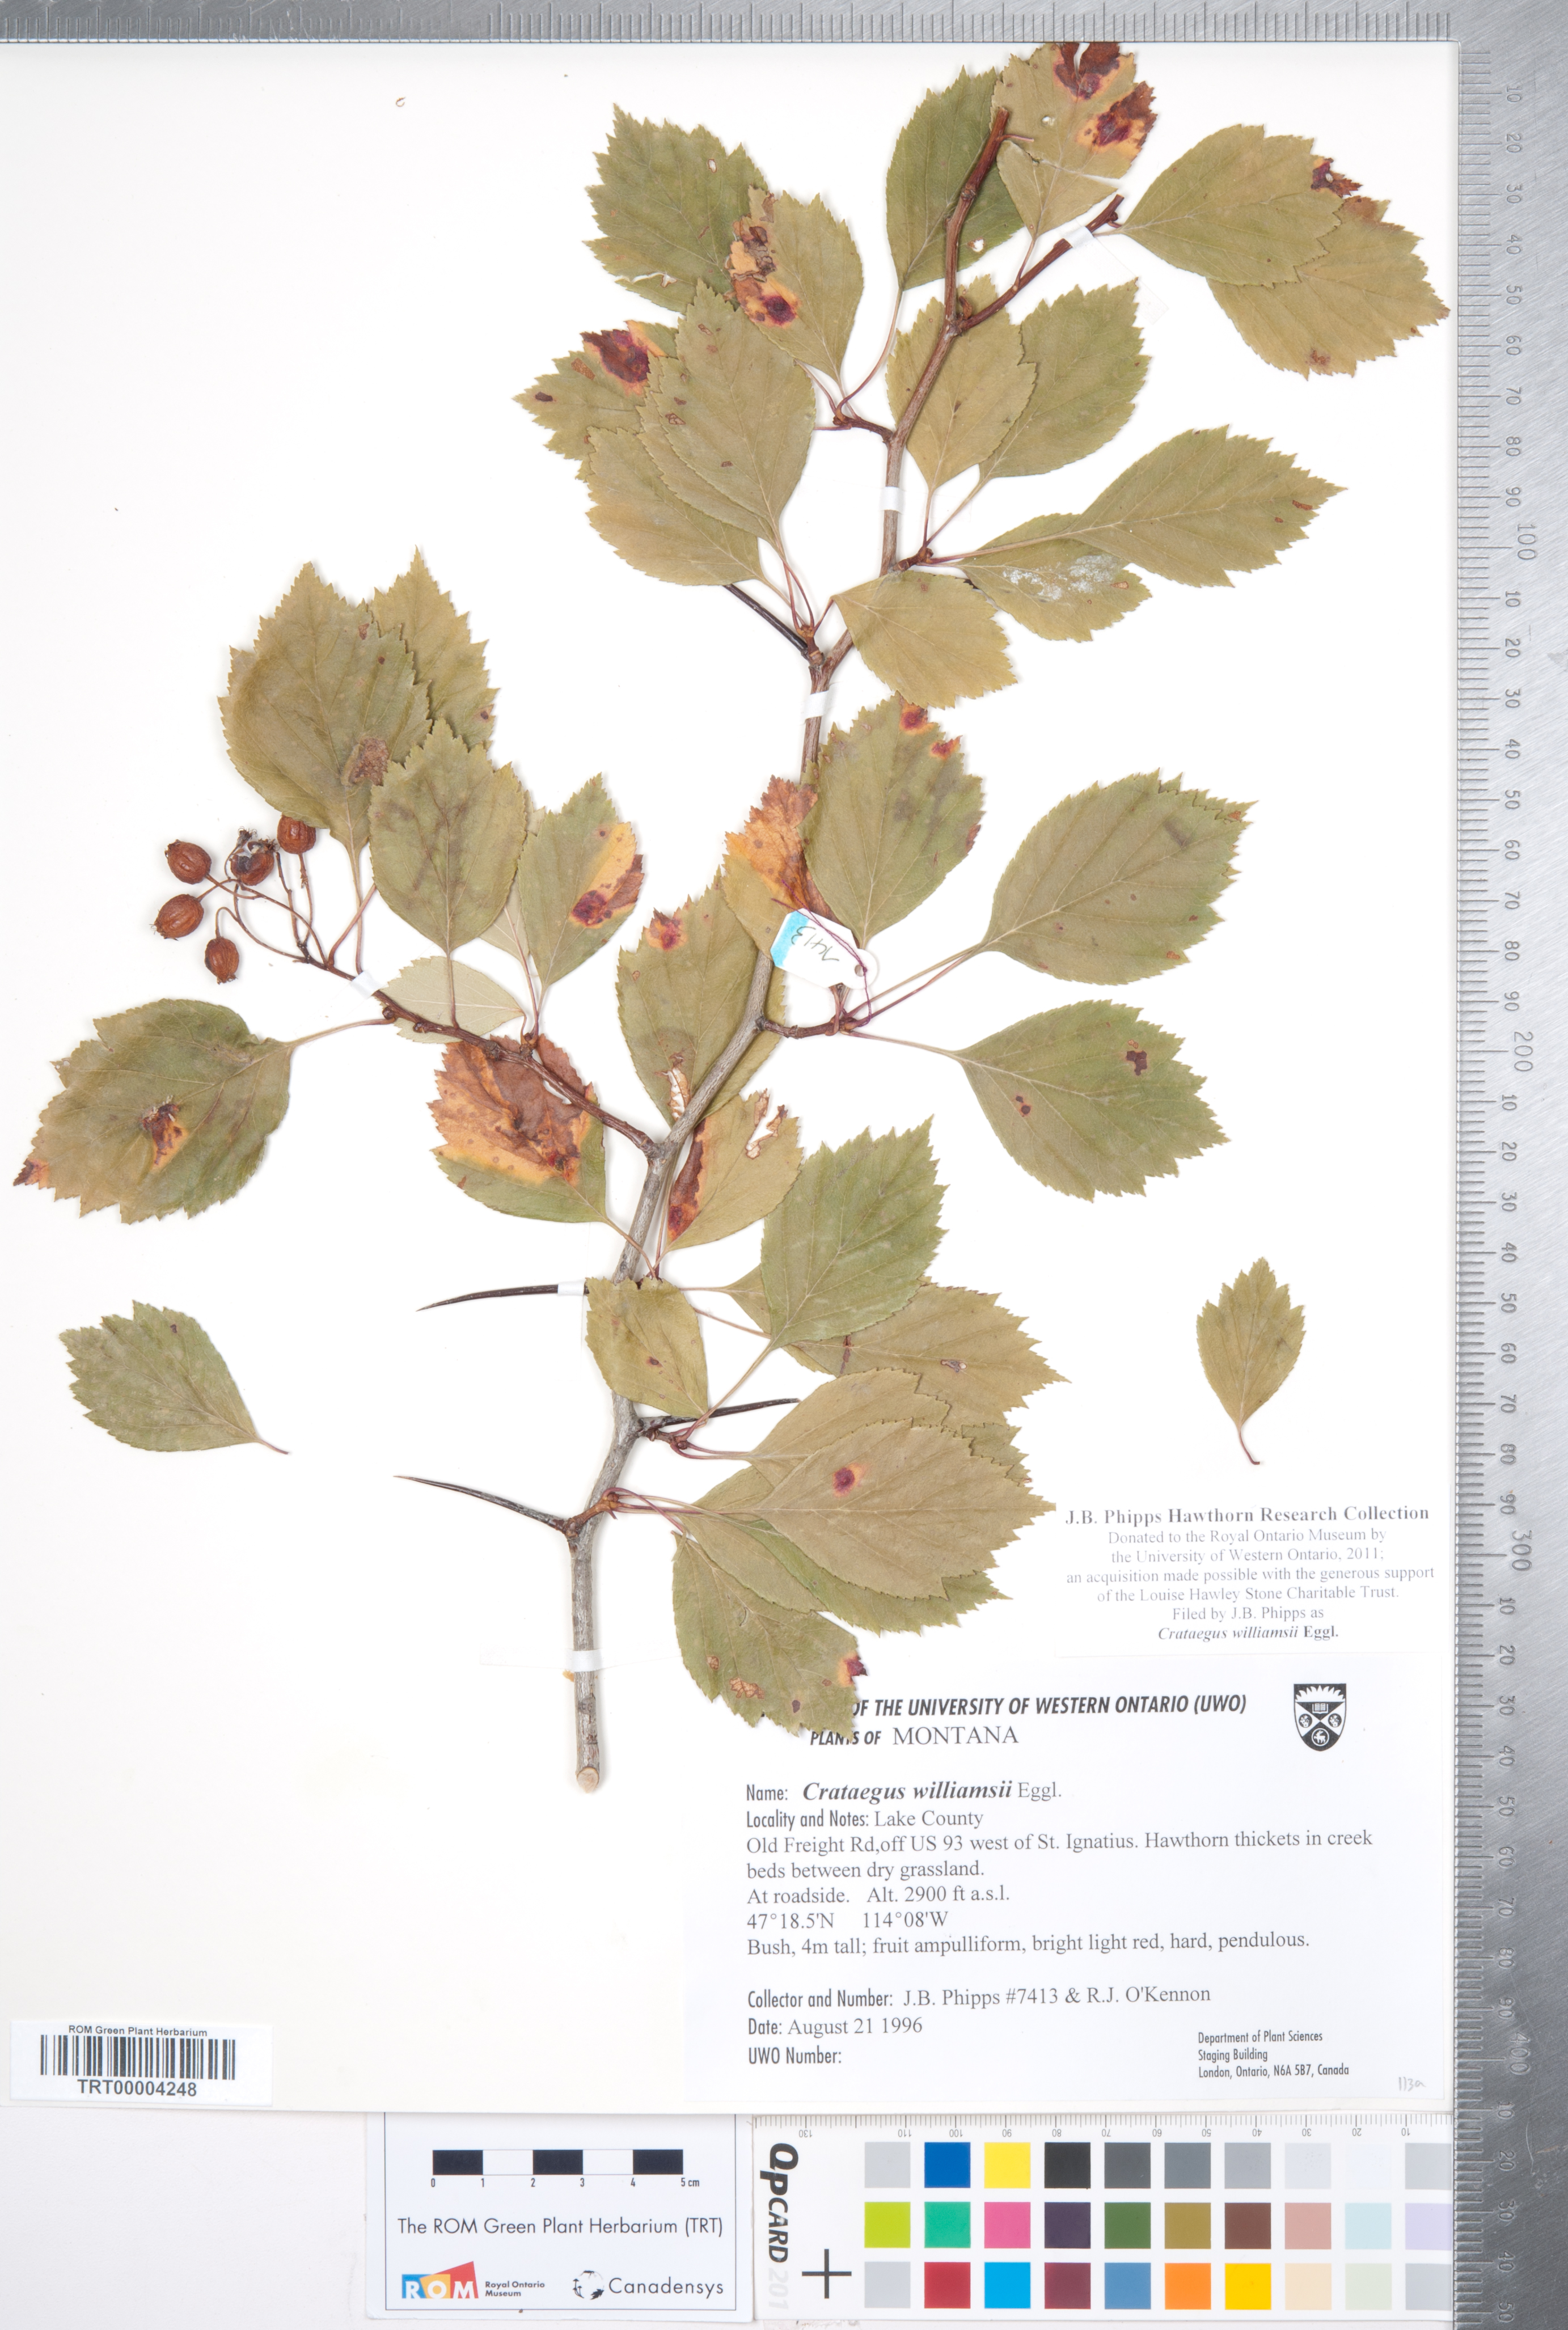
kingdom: Plantae
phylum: Tracheophyta
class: Magnoliopsida
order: Rosales
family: Rosaceae
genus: Crataegus
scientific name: Crataegus williamsii
